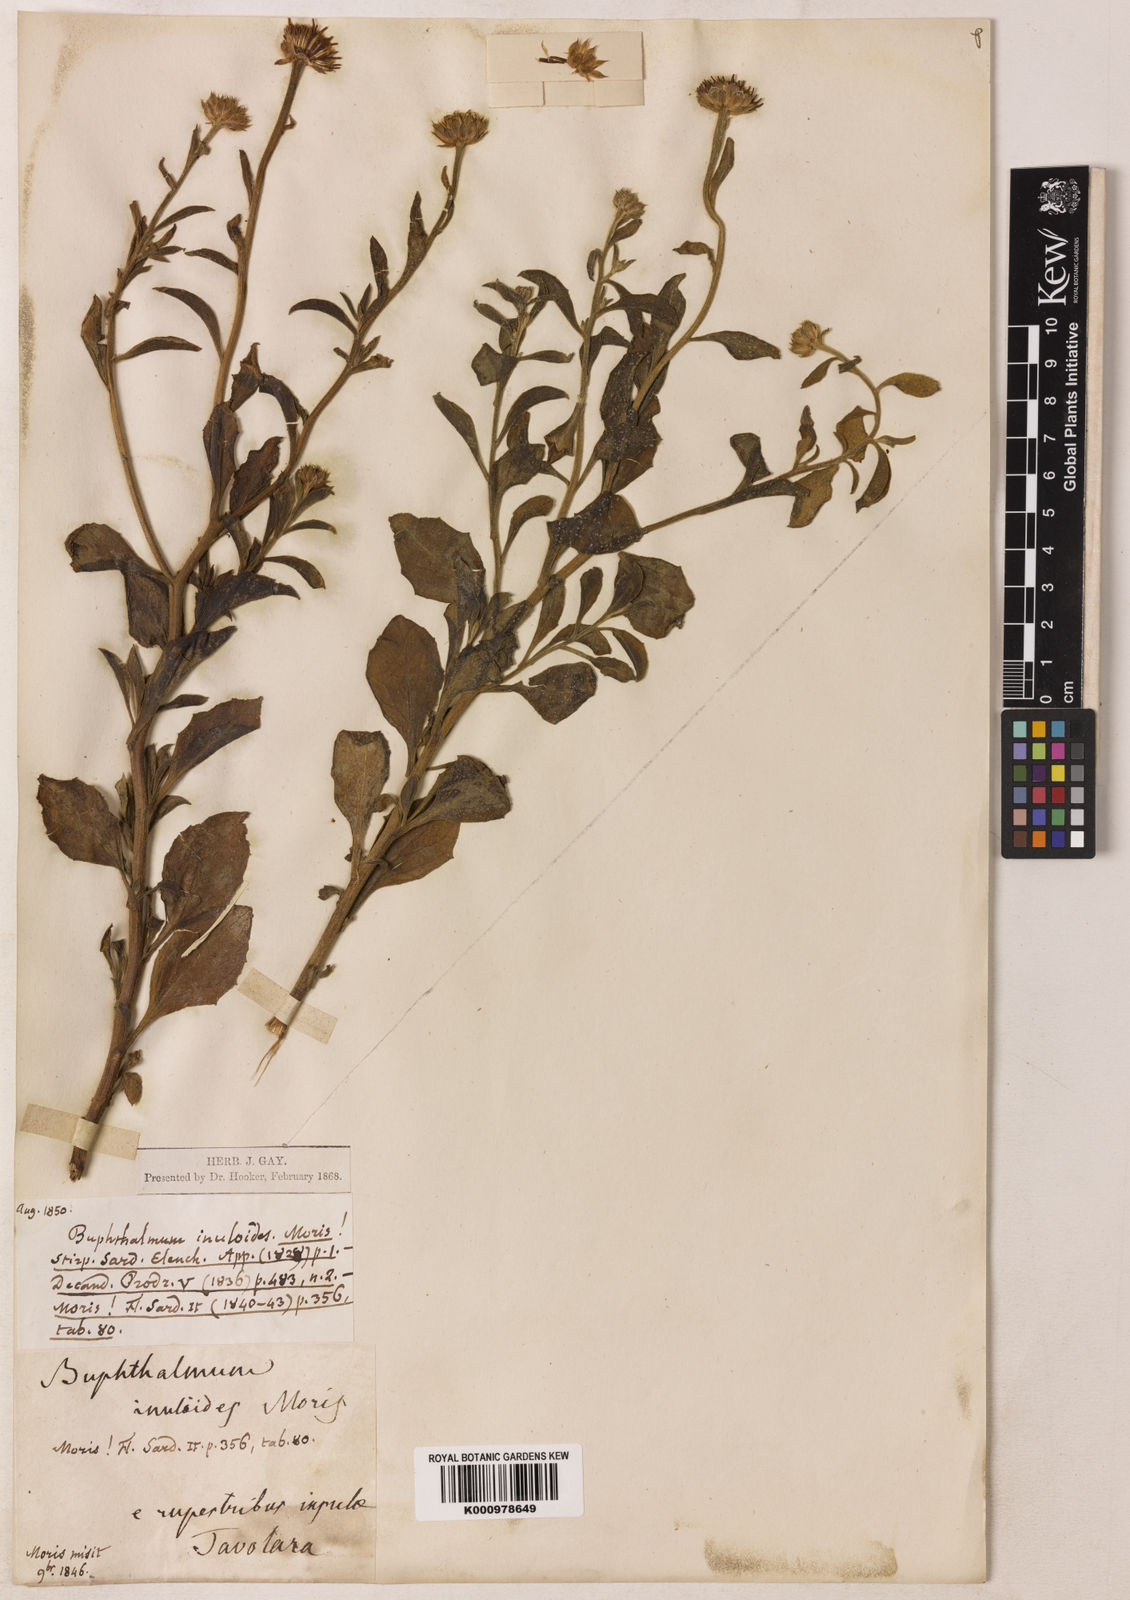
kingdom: Plantae
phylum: Tracheophyta
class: Magnoliopsida
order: Asterales
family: Asteraceae
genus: Buphthalmum
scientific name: Buphthalmum inuloides
